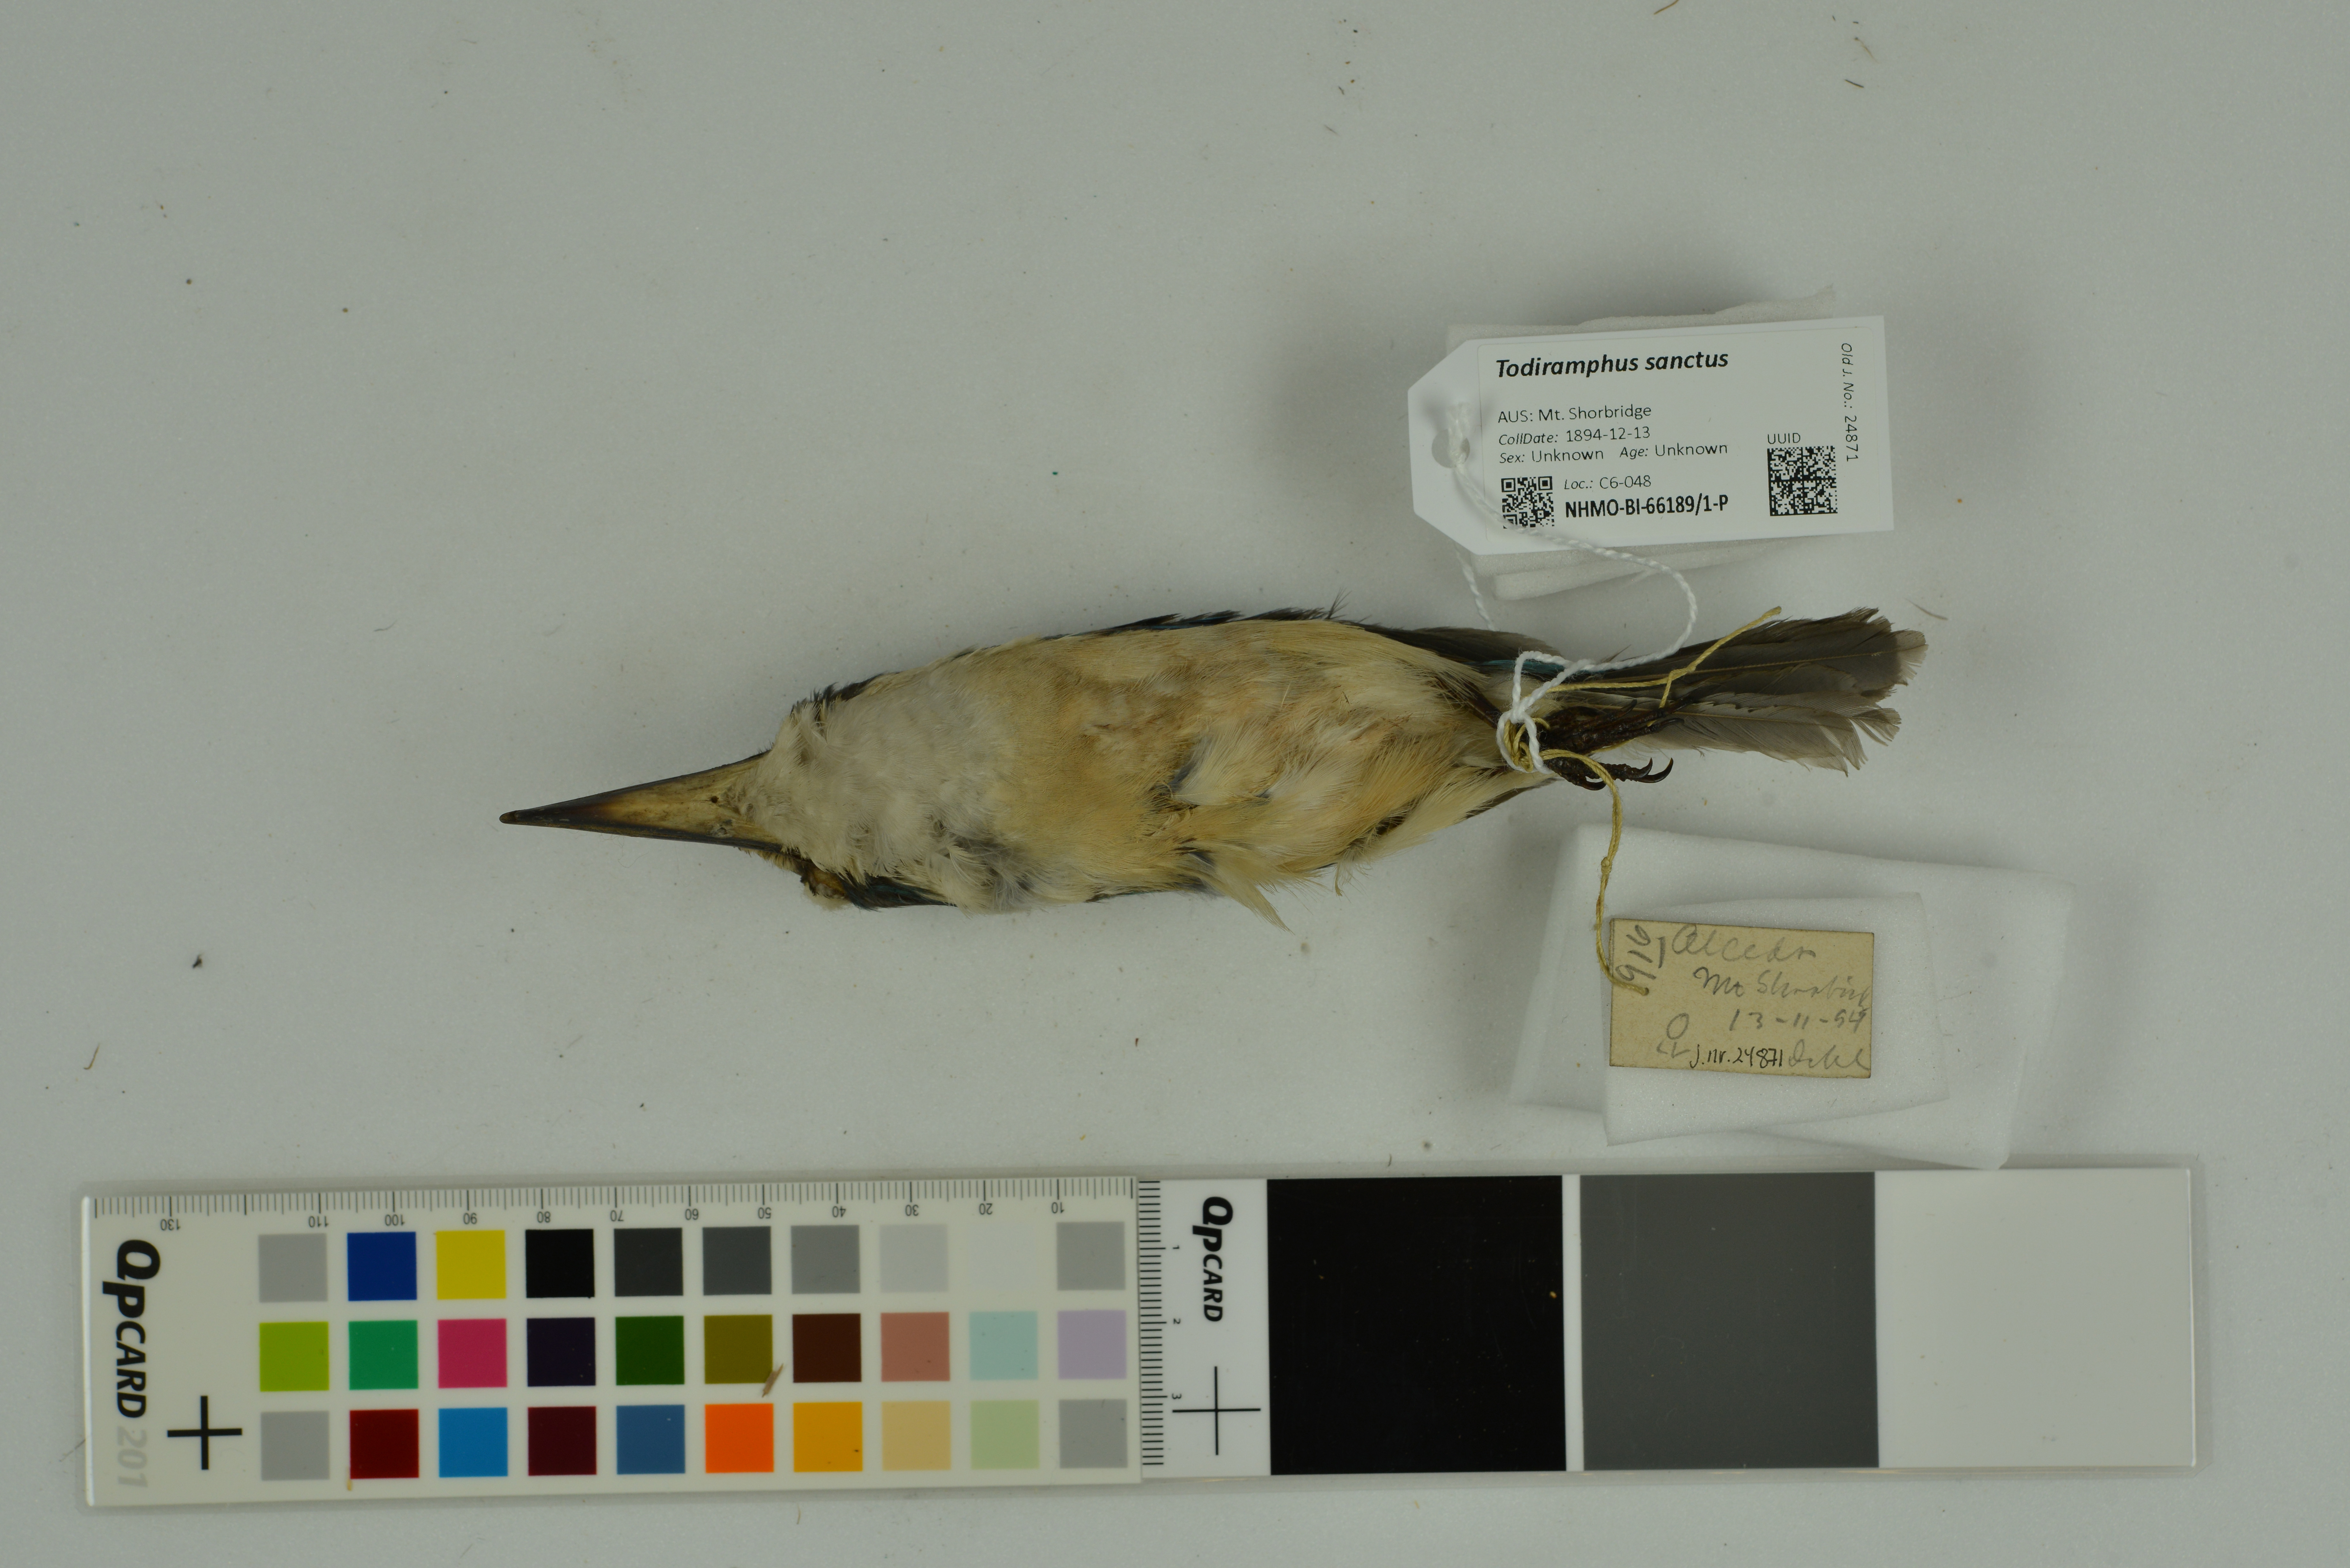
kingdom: Animalia
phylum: Chordata
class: Aves
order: Coraciiformes
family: Alcedinidae
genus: Todiramphus
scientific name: Todiramphus sanctus
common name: Sacred kingfisher
